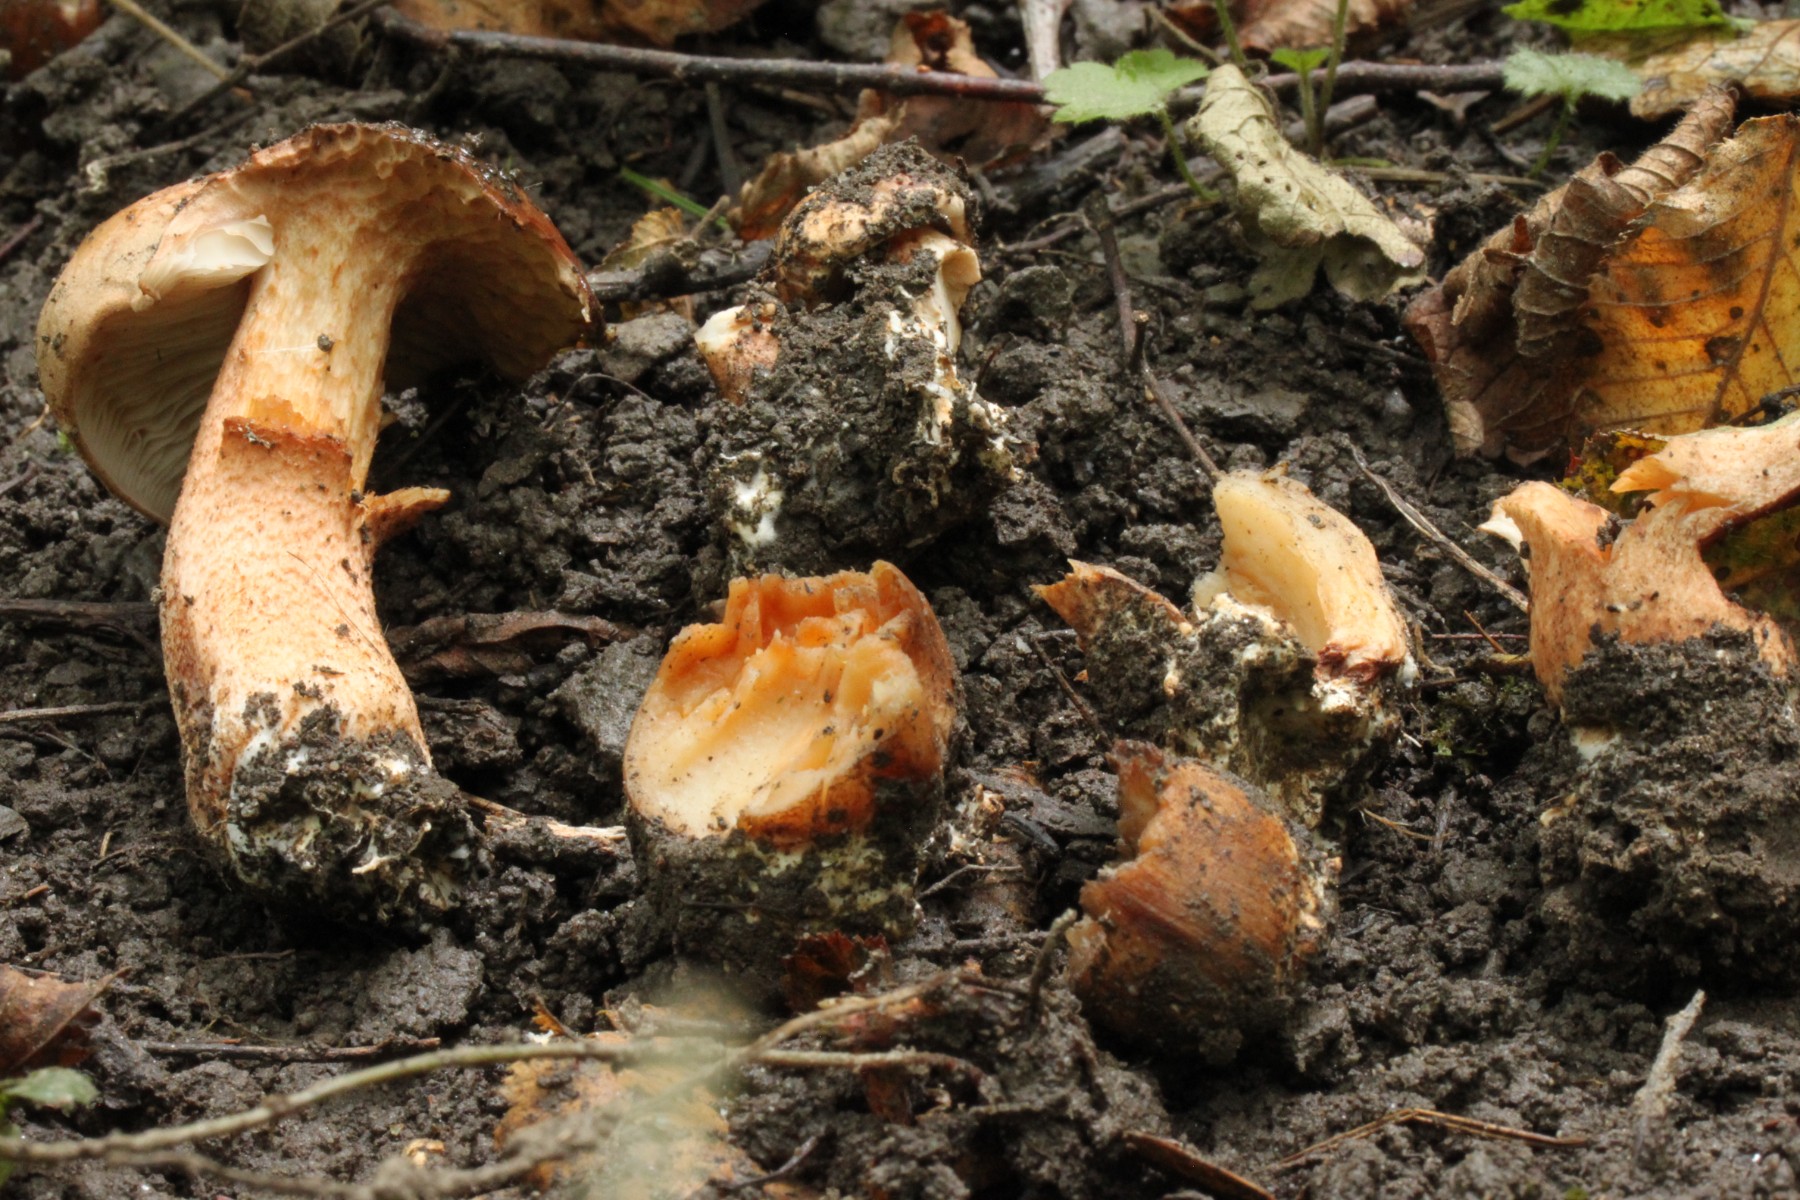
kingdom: Fungi
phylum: Basidiomycota
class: Agaricomycetes
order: Agaricales
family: Tricholomataceae
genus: Tricholoma
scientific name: Tricholoma aurantium
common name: orangegul ridderhat
